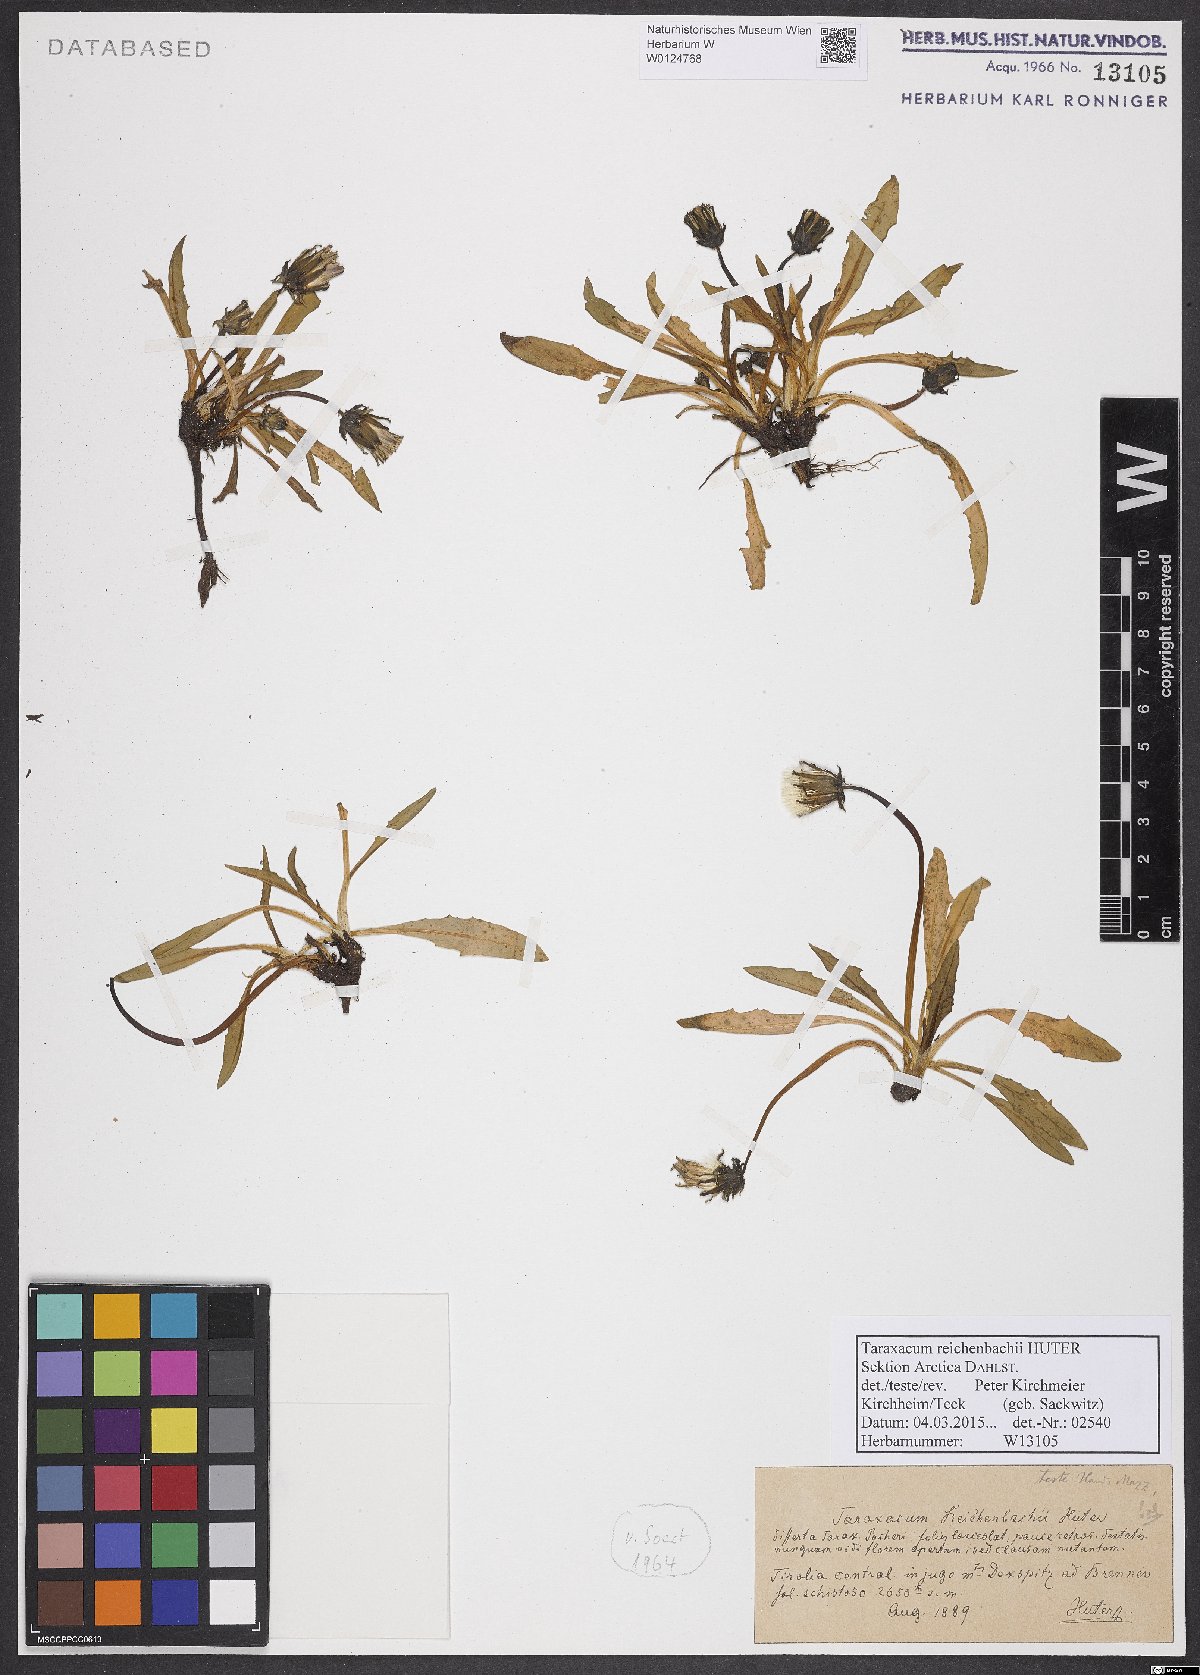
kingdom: Plantae
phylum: Tracheophyta
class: Magnoliopsida
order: Asterales
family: Asteraceae
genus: Taraxacum
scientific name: Taraxacum reichenbachii
